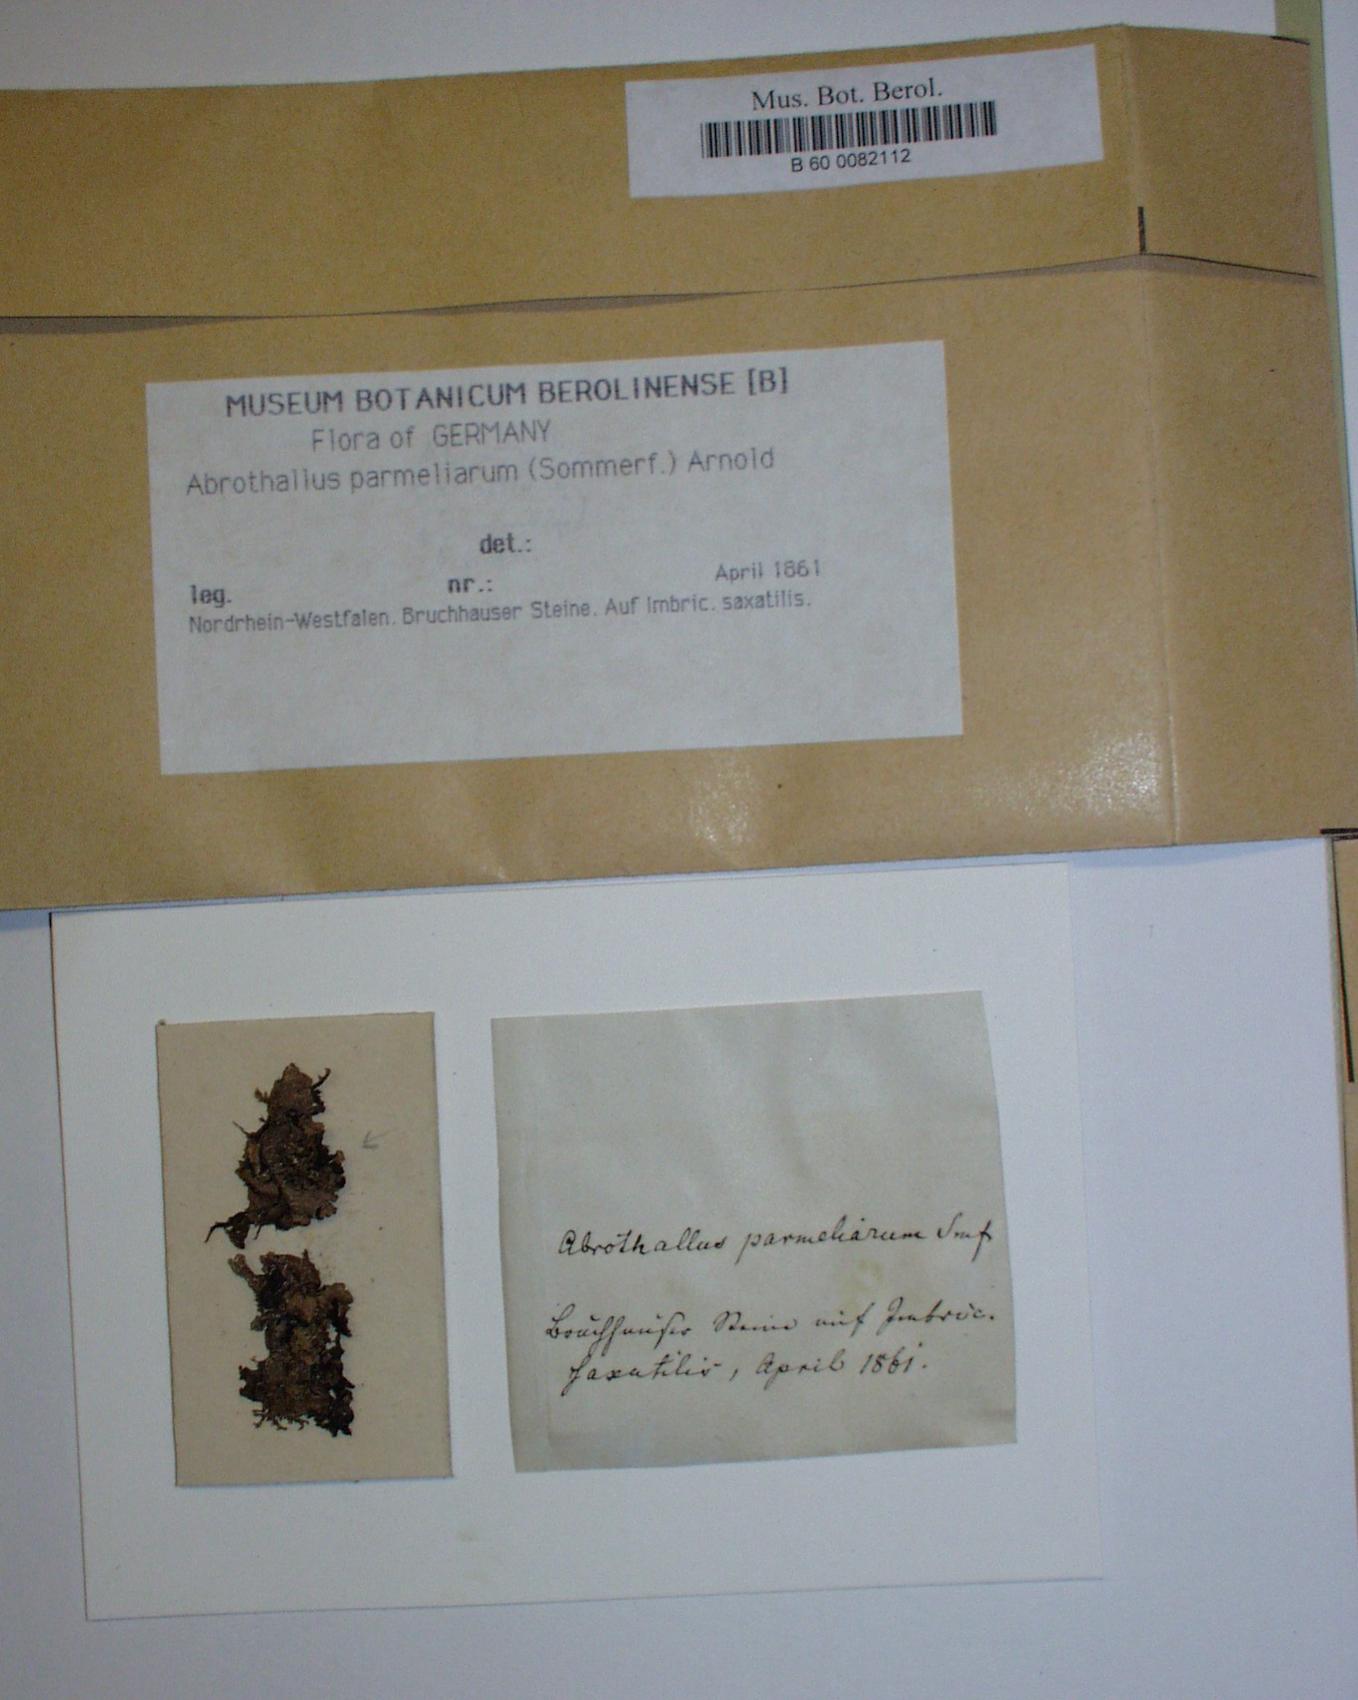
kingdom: Fungi
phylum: Ascomycota
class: Dothideomycetes
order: Abrothallales
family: Abrothallaceae
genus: Abrothallus
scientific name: Abrothallus parmeliarum
